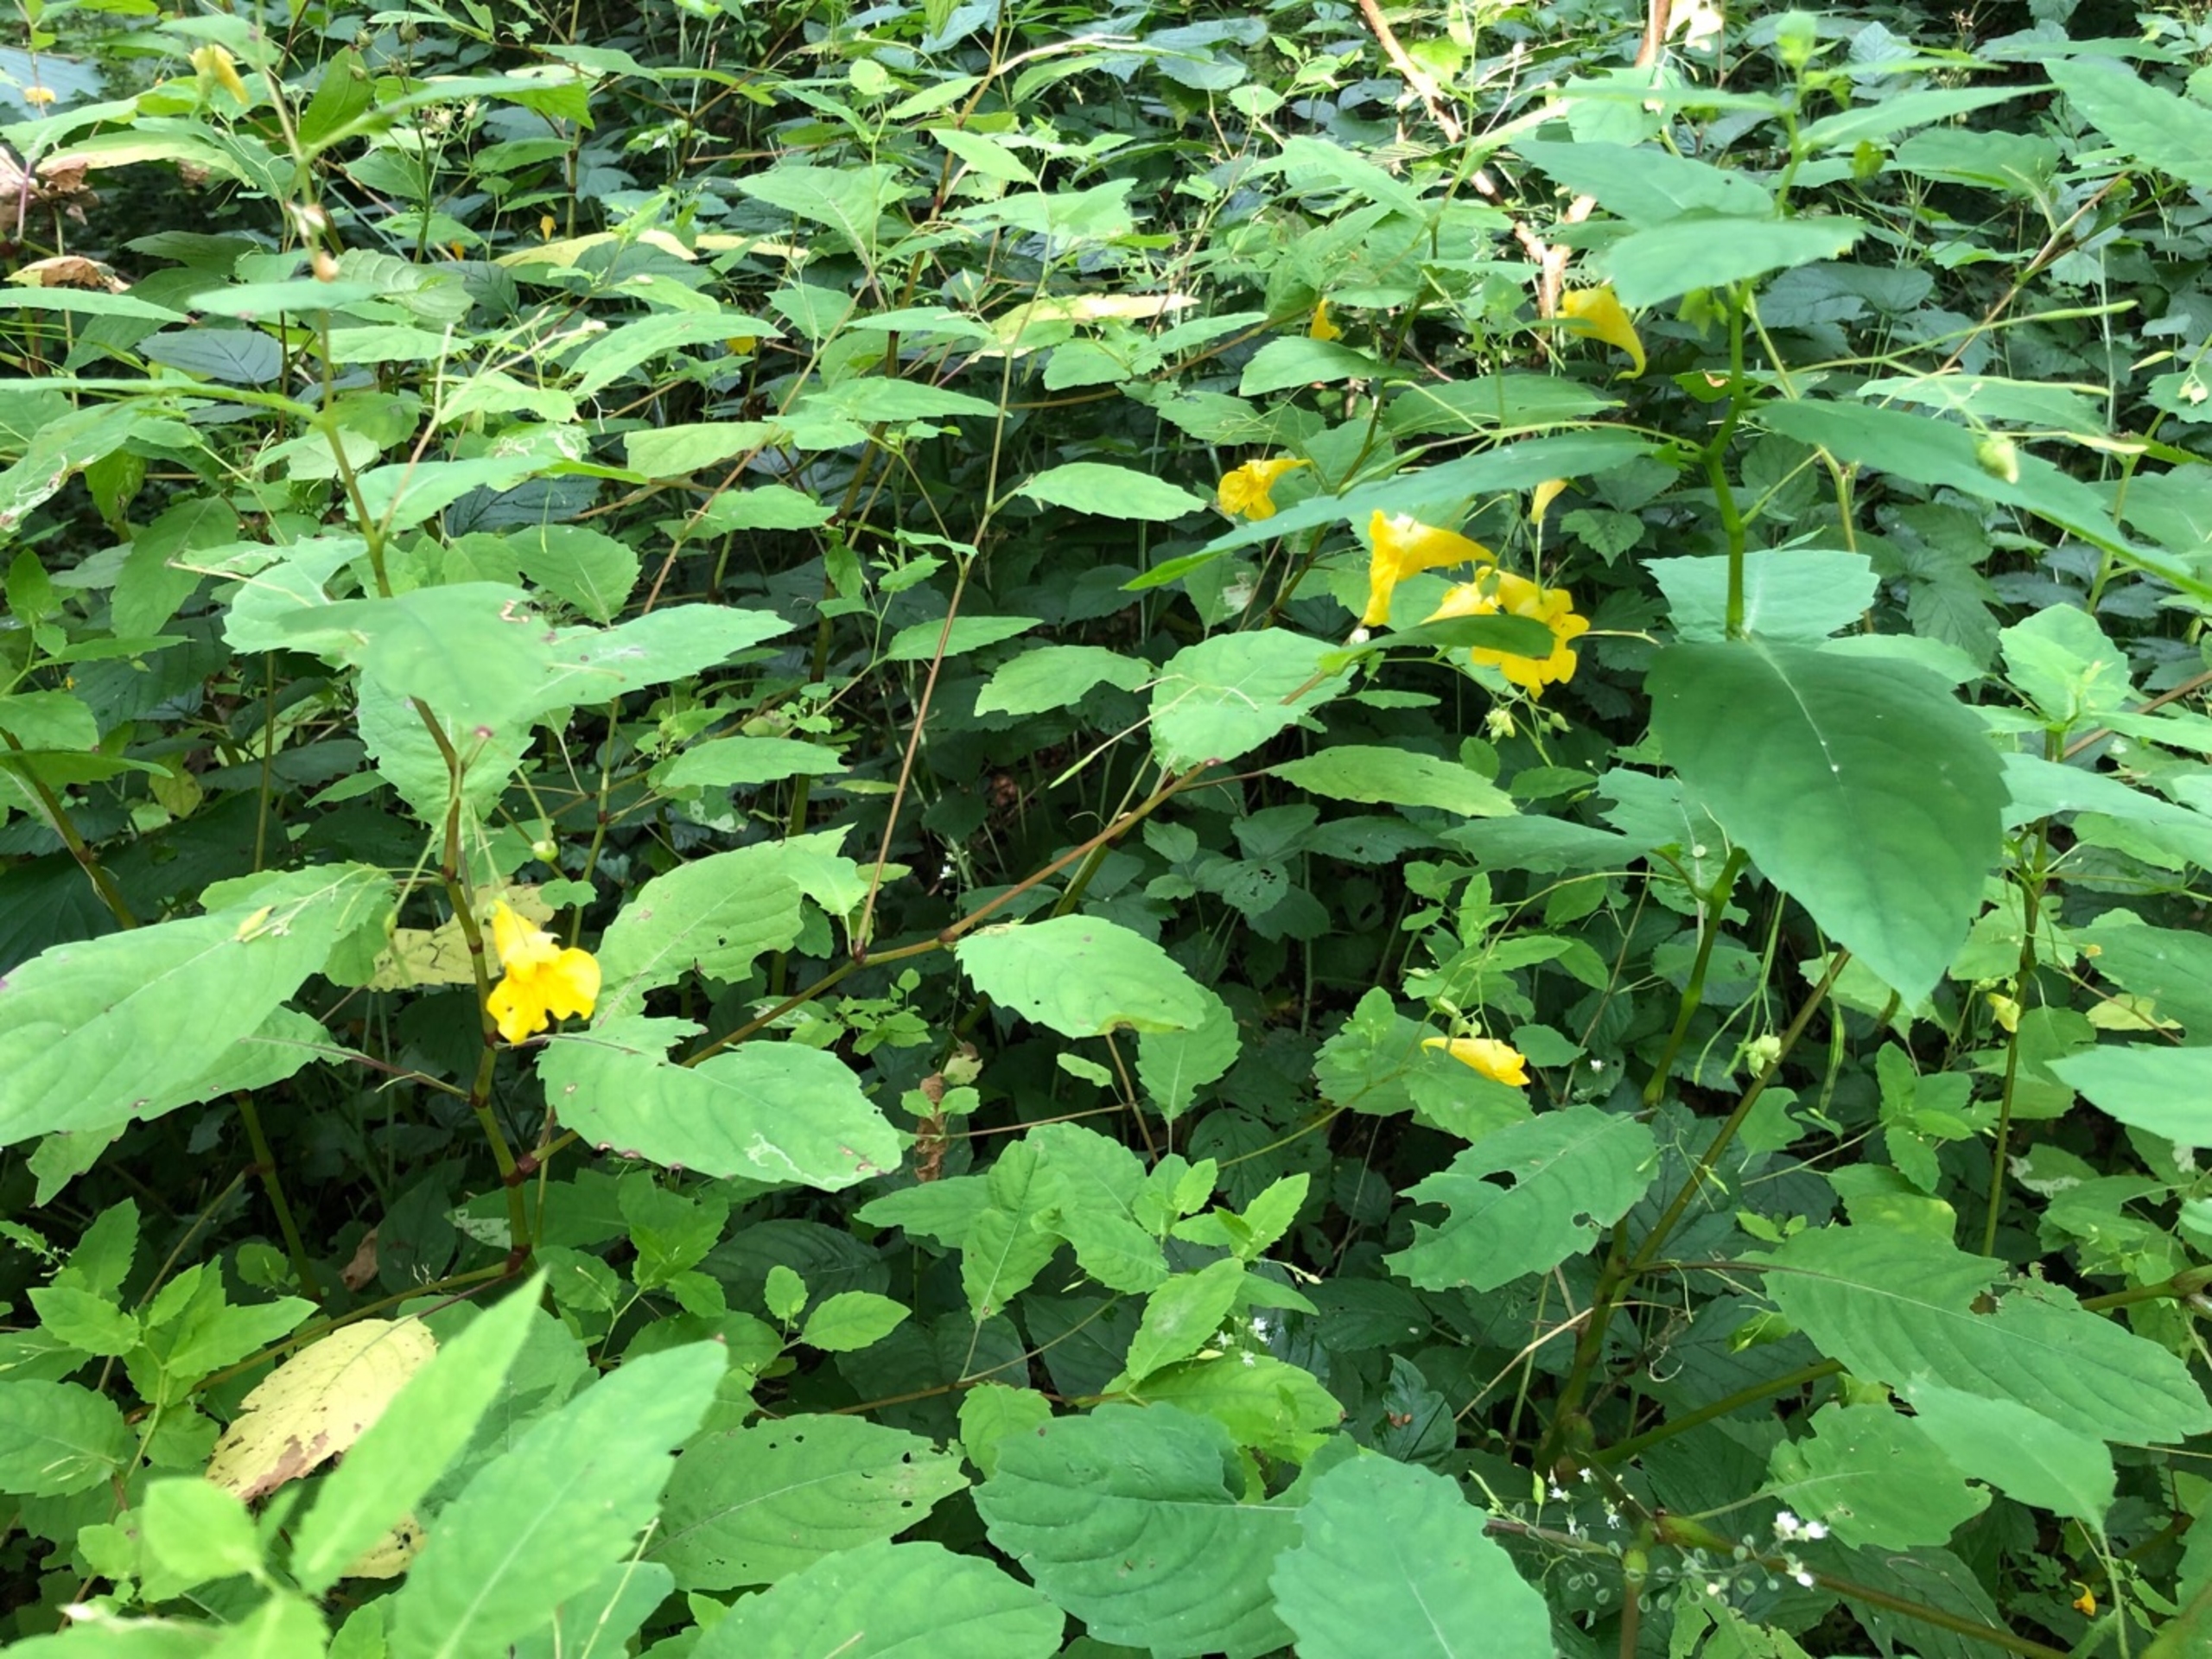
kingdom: Plantae
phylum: Tracheophyta
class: Magnoliopsida
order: Ericales
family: Balsaminaceae
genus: Impatiens
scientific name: Impatiens noli-tangere
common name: Spring-balsamin
